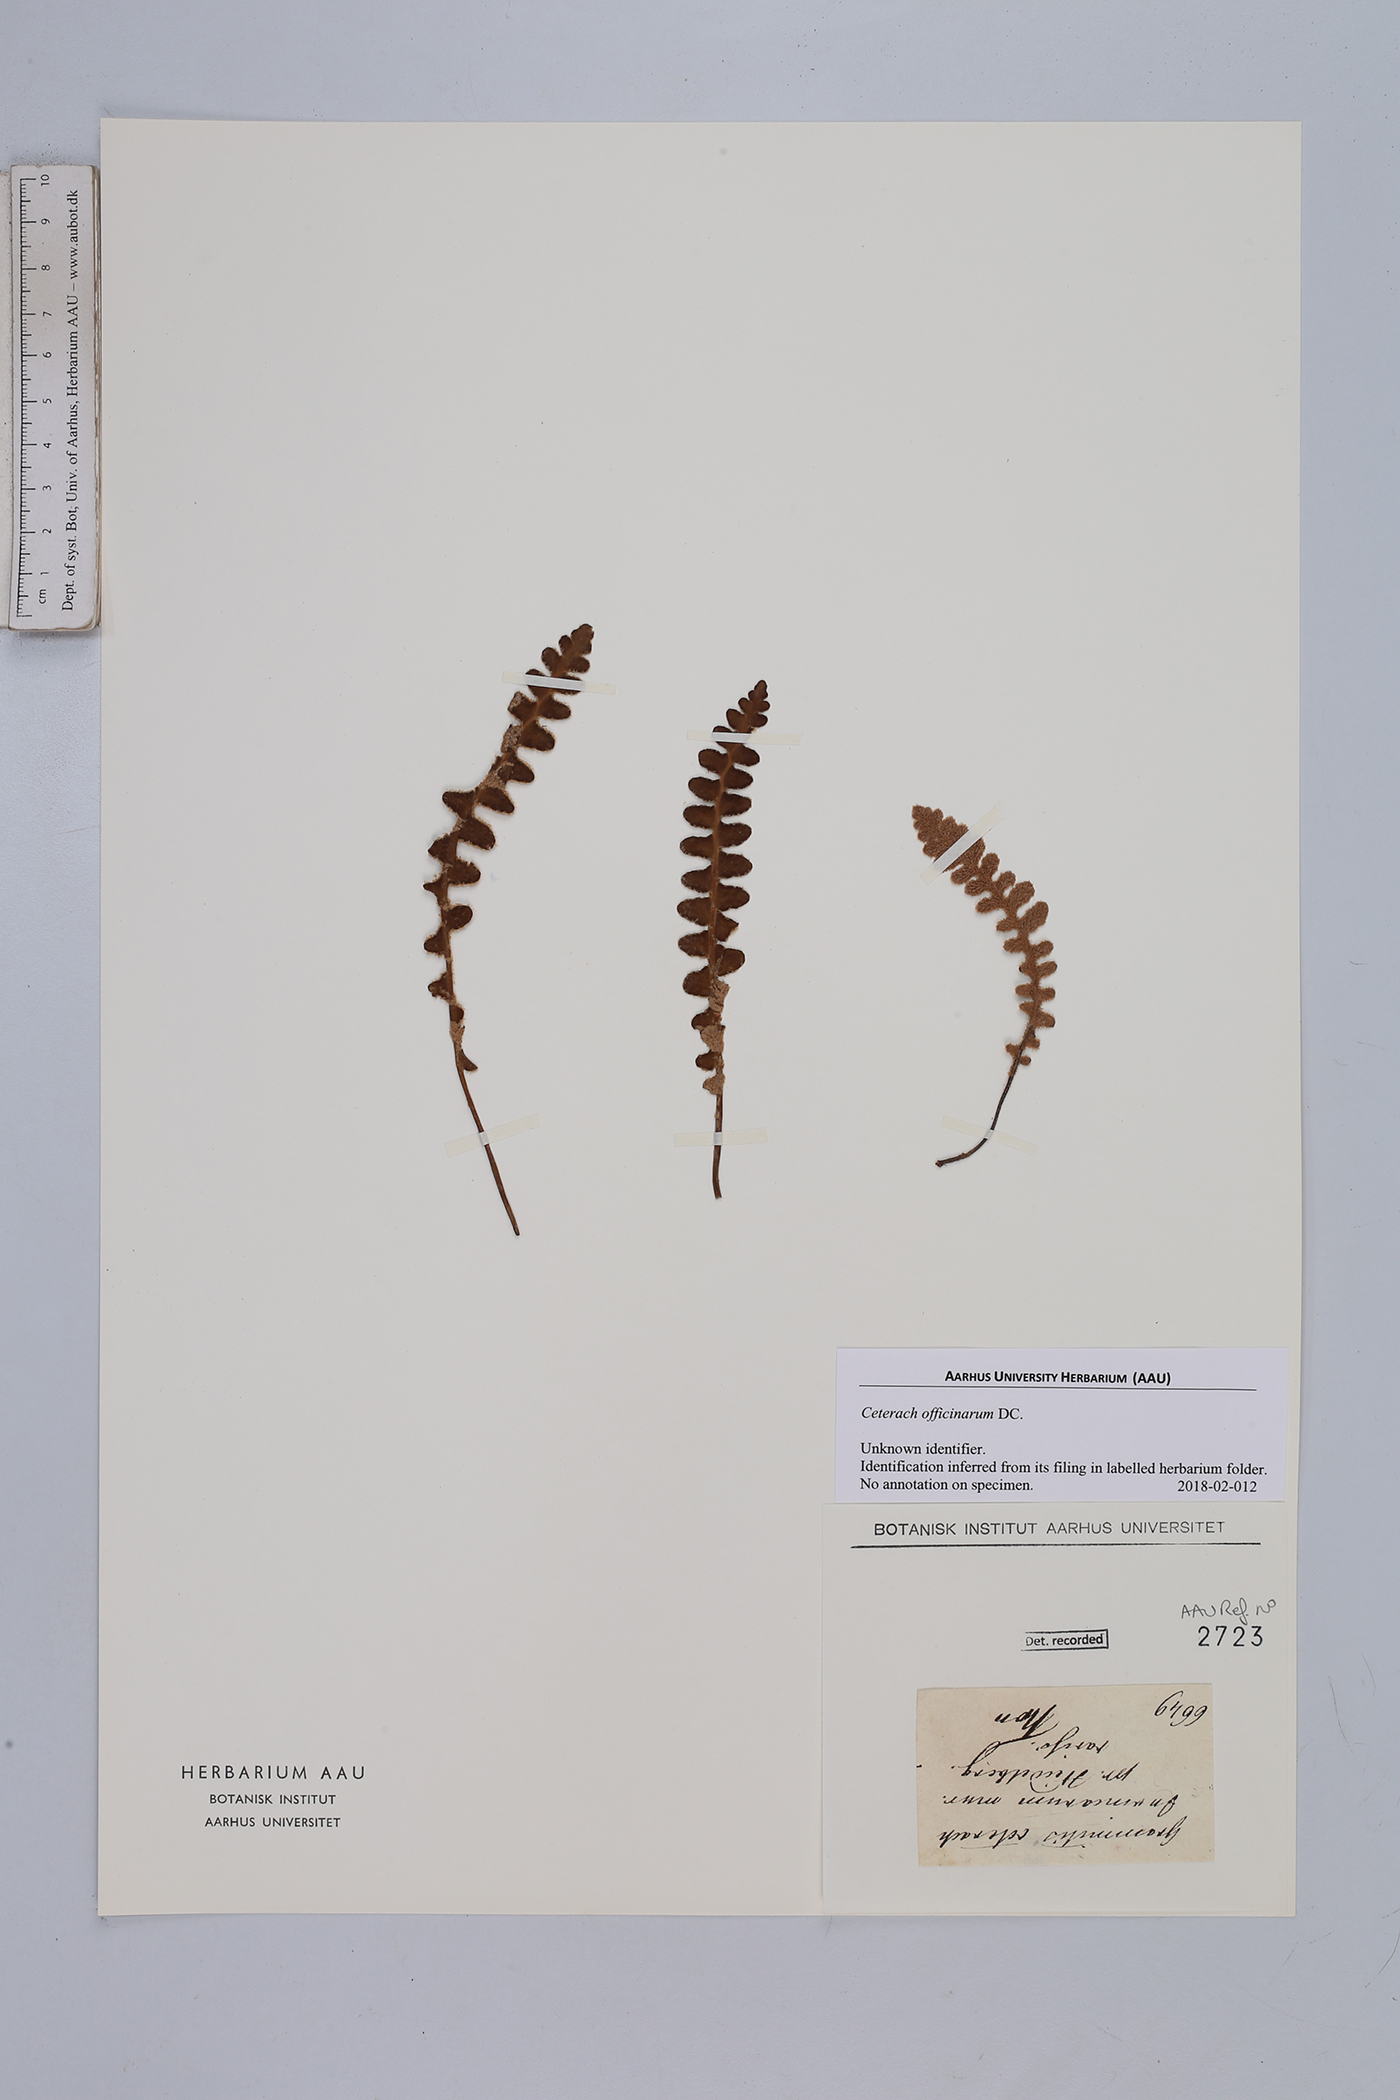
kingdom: Plantae
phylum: Tracheophyta
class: Polypodiopsida
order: Polypodiales
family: Aspleniaceae
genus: Asplenium
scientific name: Asplenium ceterach
